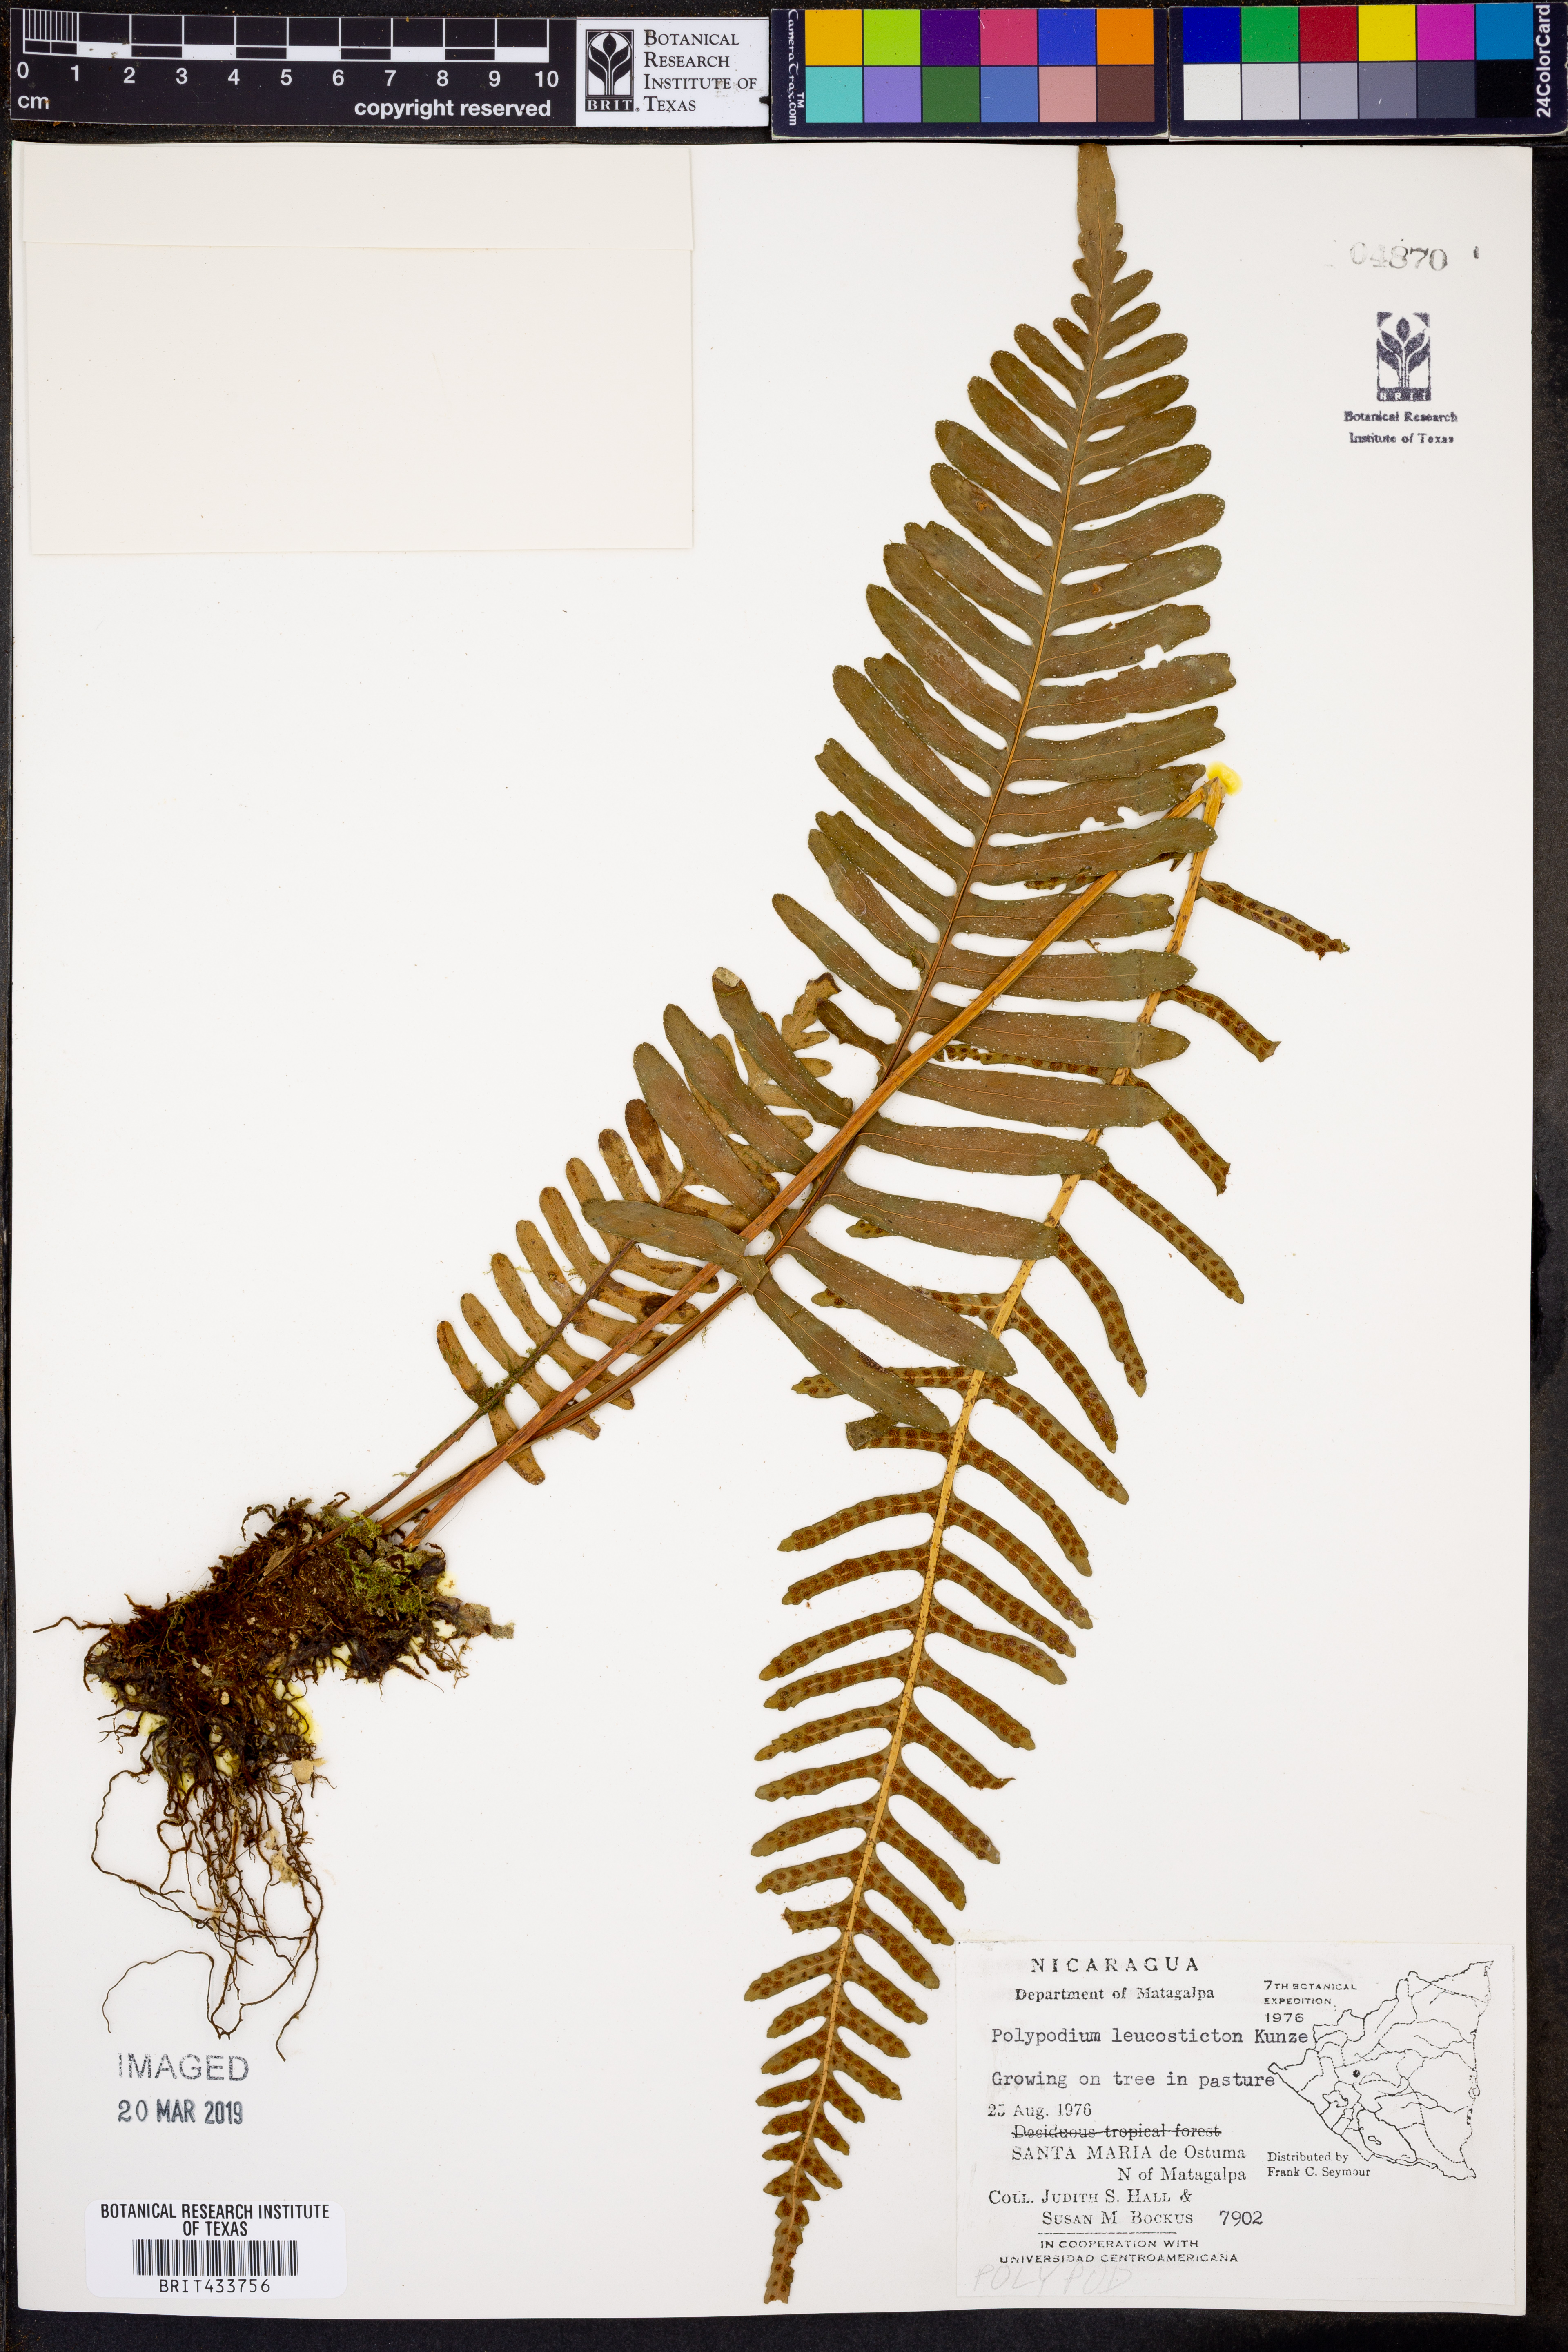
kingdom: Plantae
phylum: Tracheophyta
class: Polypodiopsida
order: Polypodiales
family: Polypodiaceae
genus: Mycopteris
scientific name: Mycopteris leucosticta
